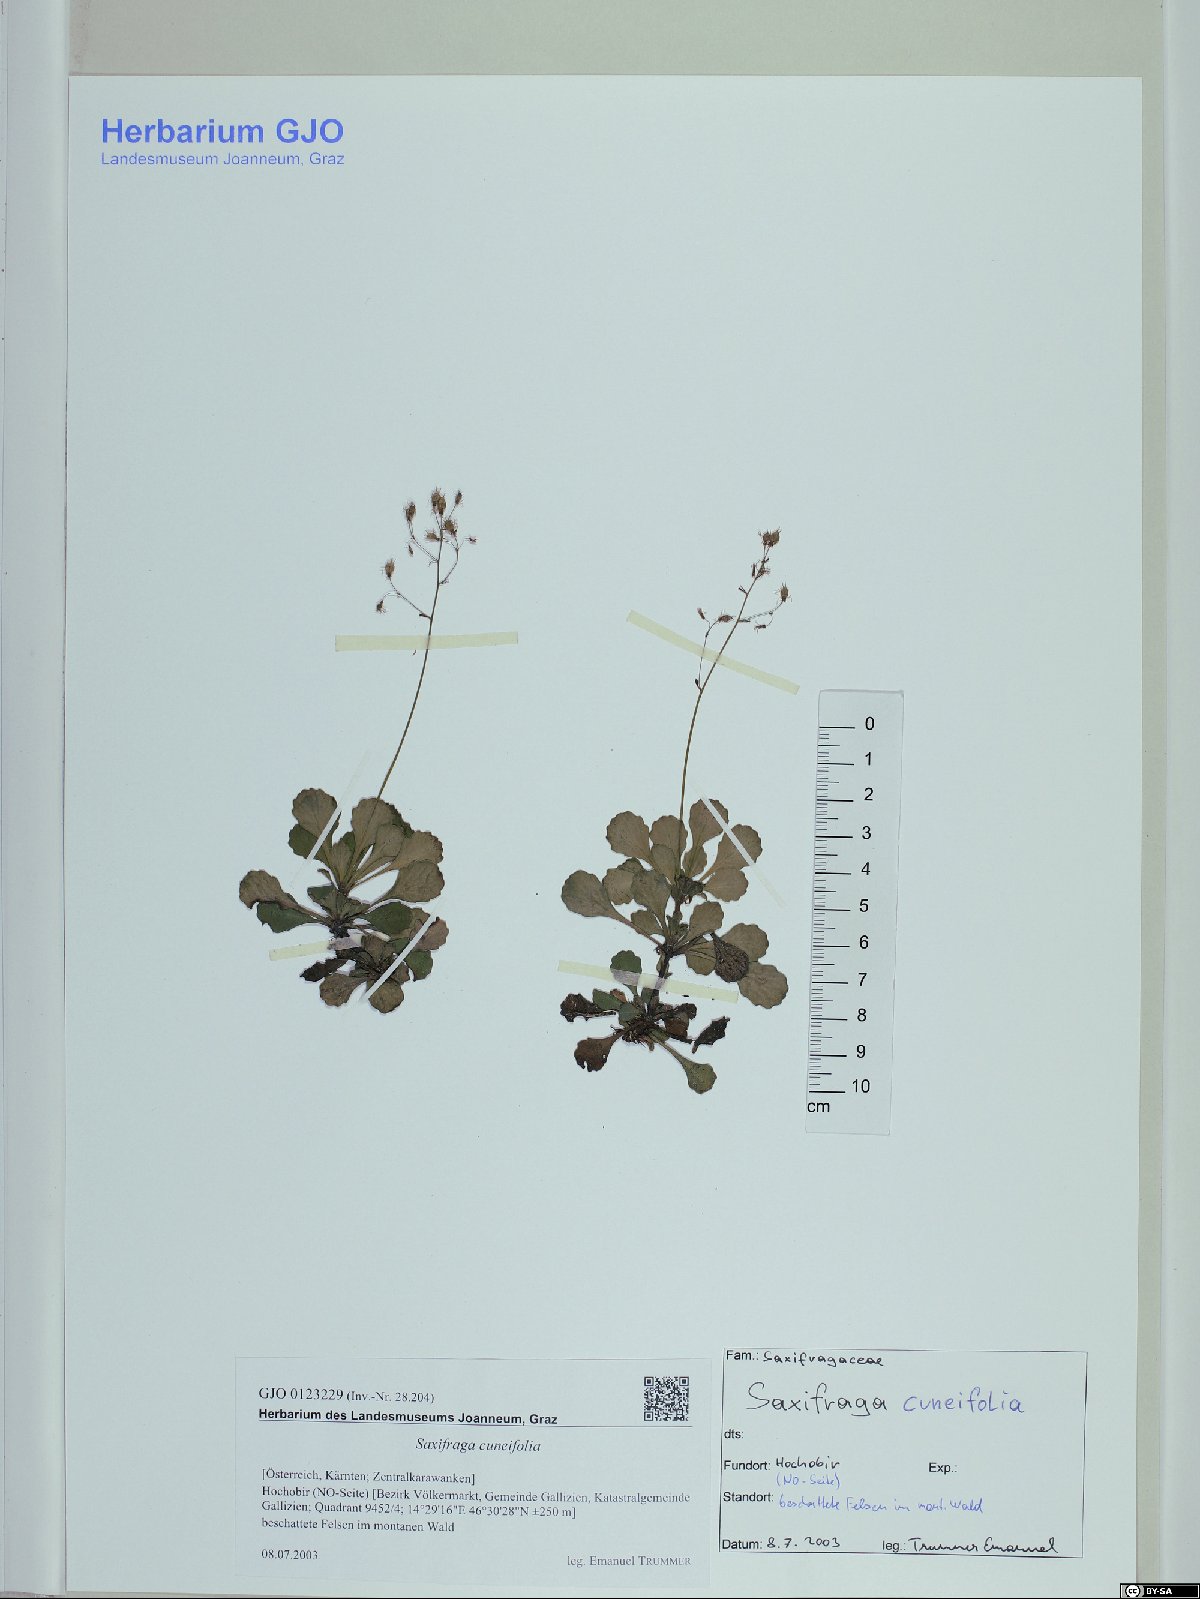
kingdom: Plantae
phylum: Tracheophyta
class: Magnoliopsida
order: Saxifragales
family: Saxifragaceae
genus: Saxifraga
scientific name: Saxifraga cuneifolia
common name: Lesser londonpride
